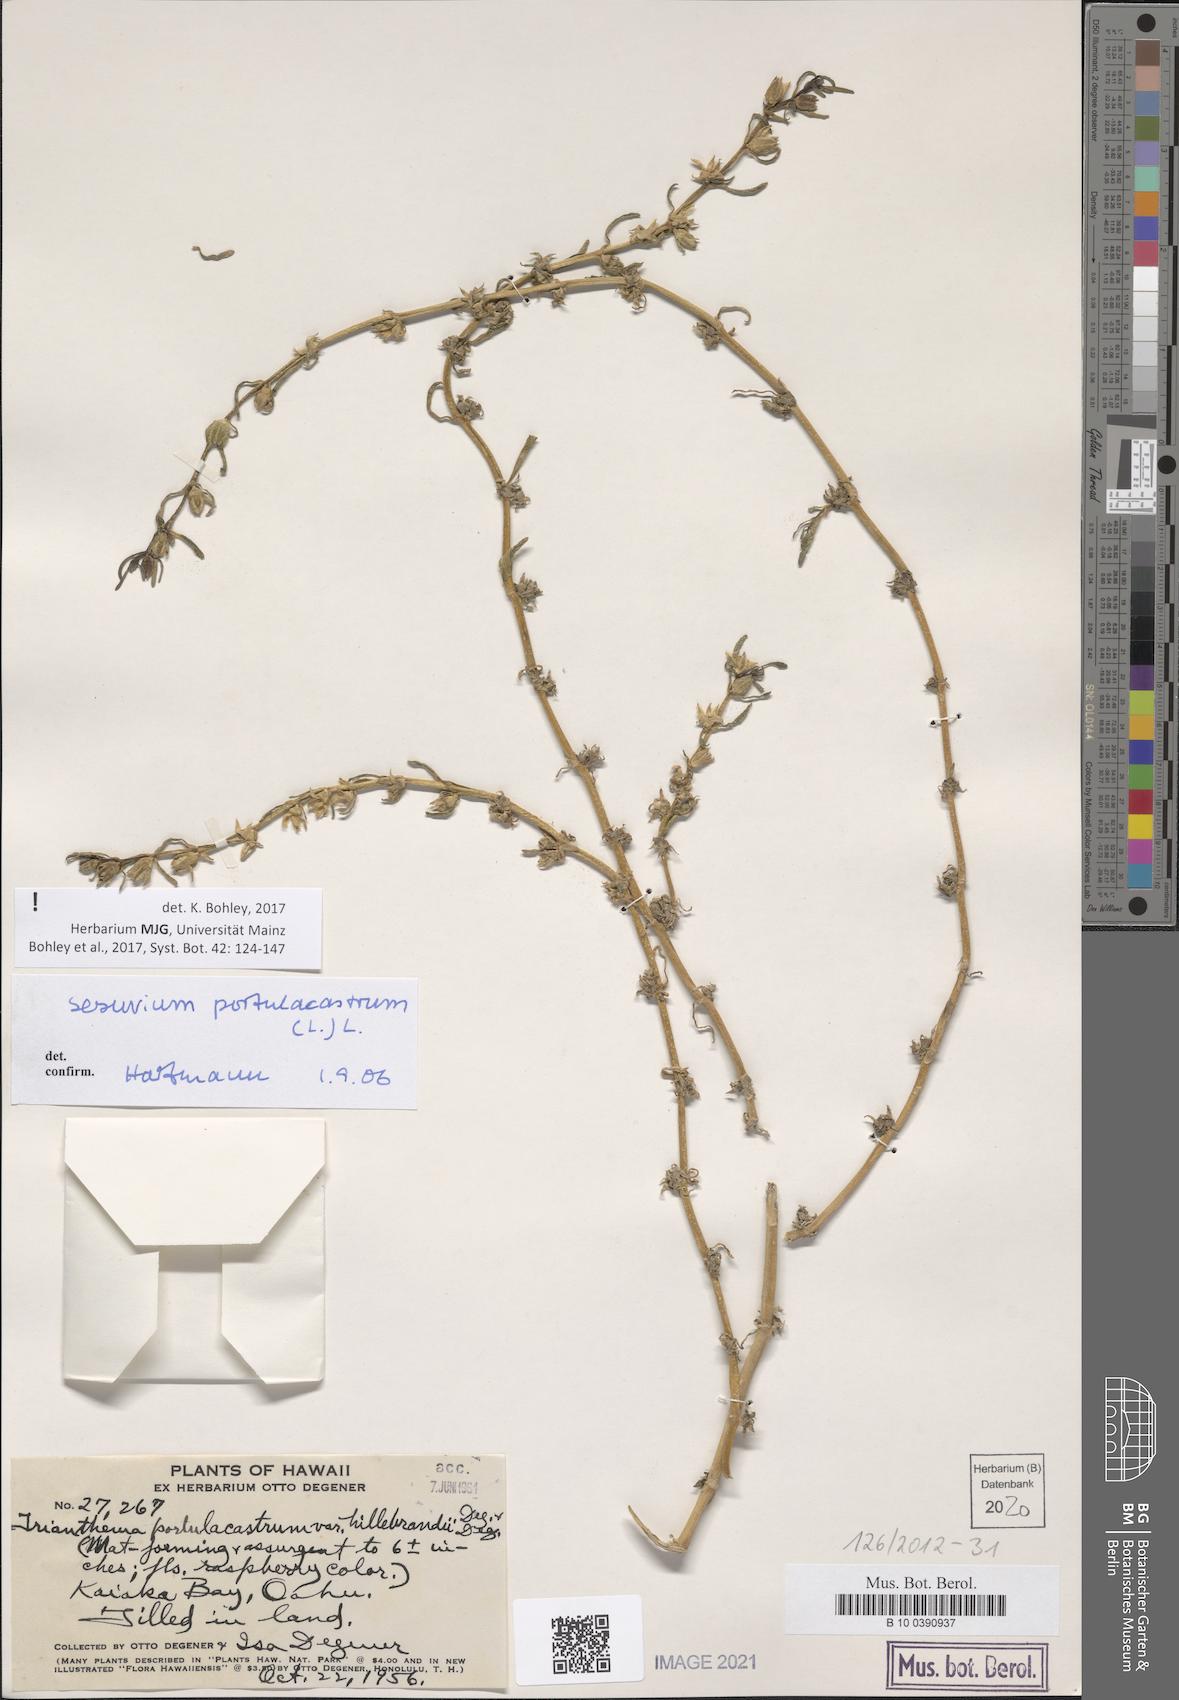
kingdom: Plantae
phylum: Tracheophyta
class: Magnoliopsida
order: Caryophyllales
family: Aizoaceae
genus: Sesuvium
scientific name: Sesuvium portulacastrum
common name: Sea-purslane
